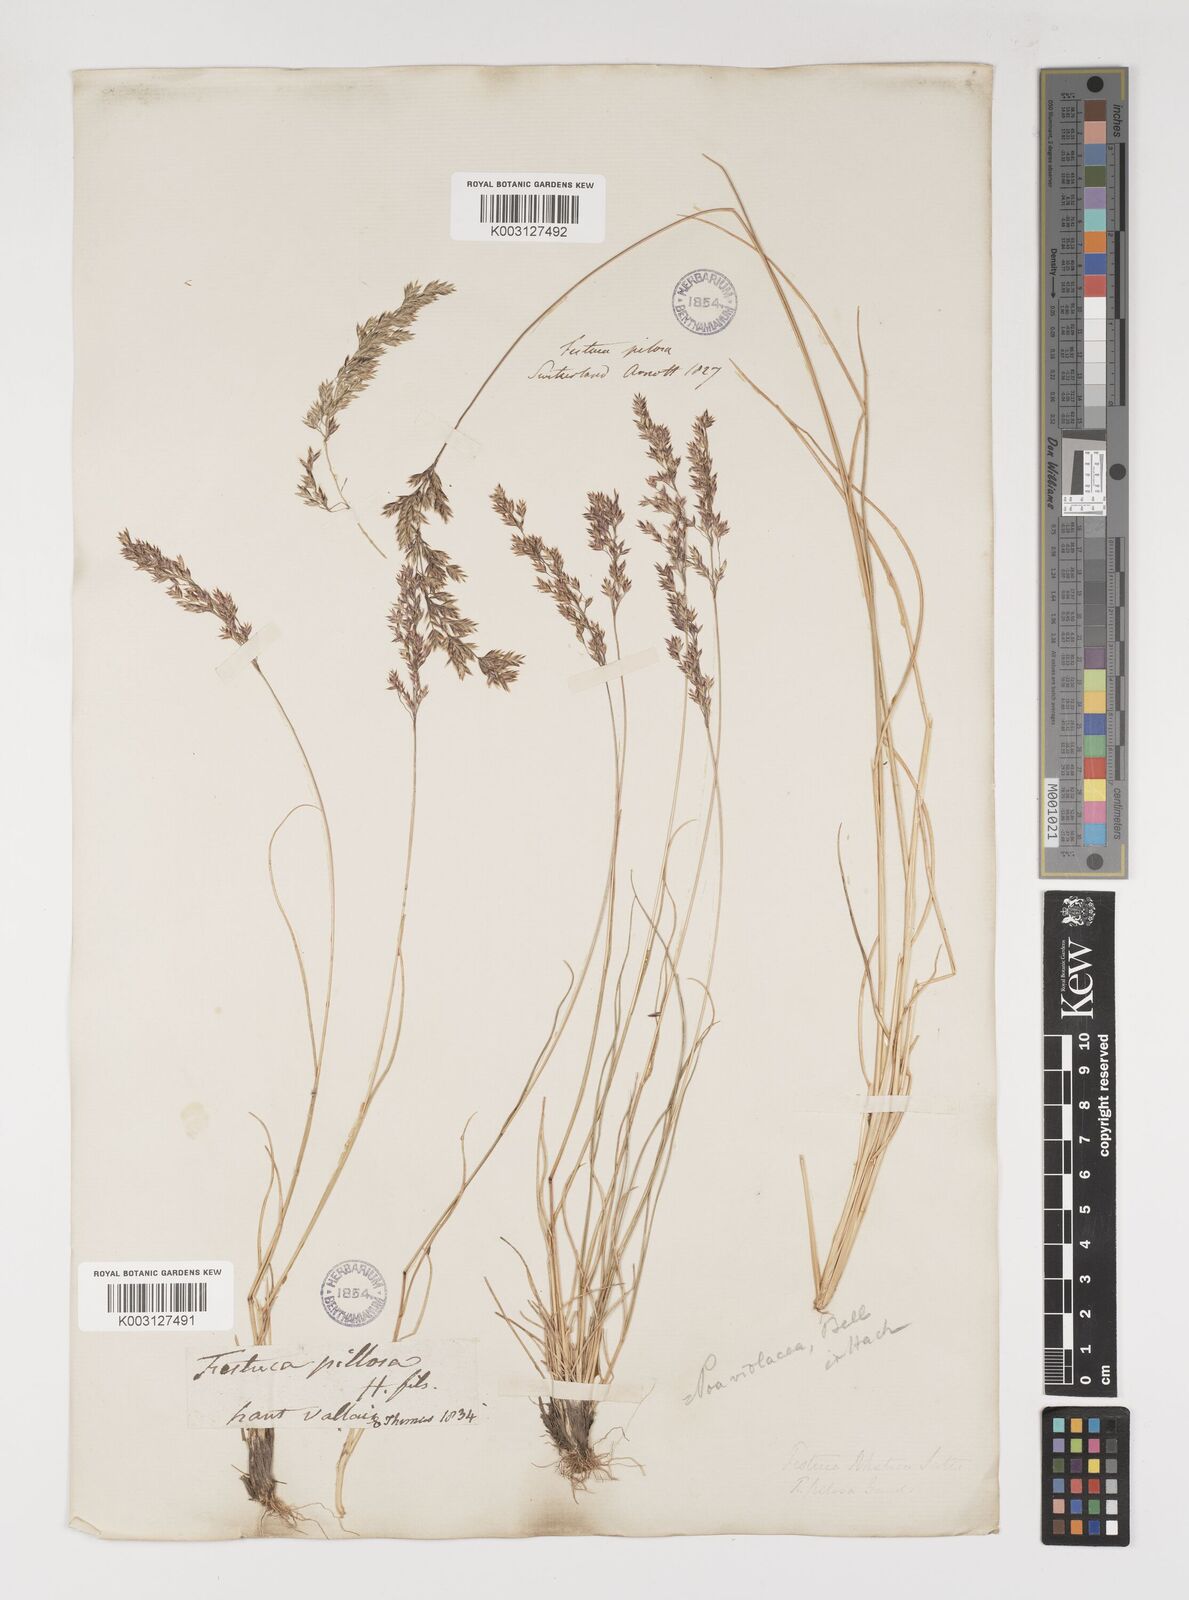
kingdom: Plantae
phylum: Tracheophyta
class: Liliopsida
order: Poales
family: Poaceae
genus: Bellardiochloa
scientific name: Bellardiochloa variegata
